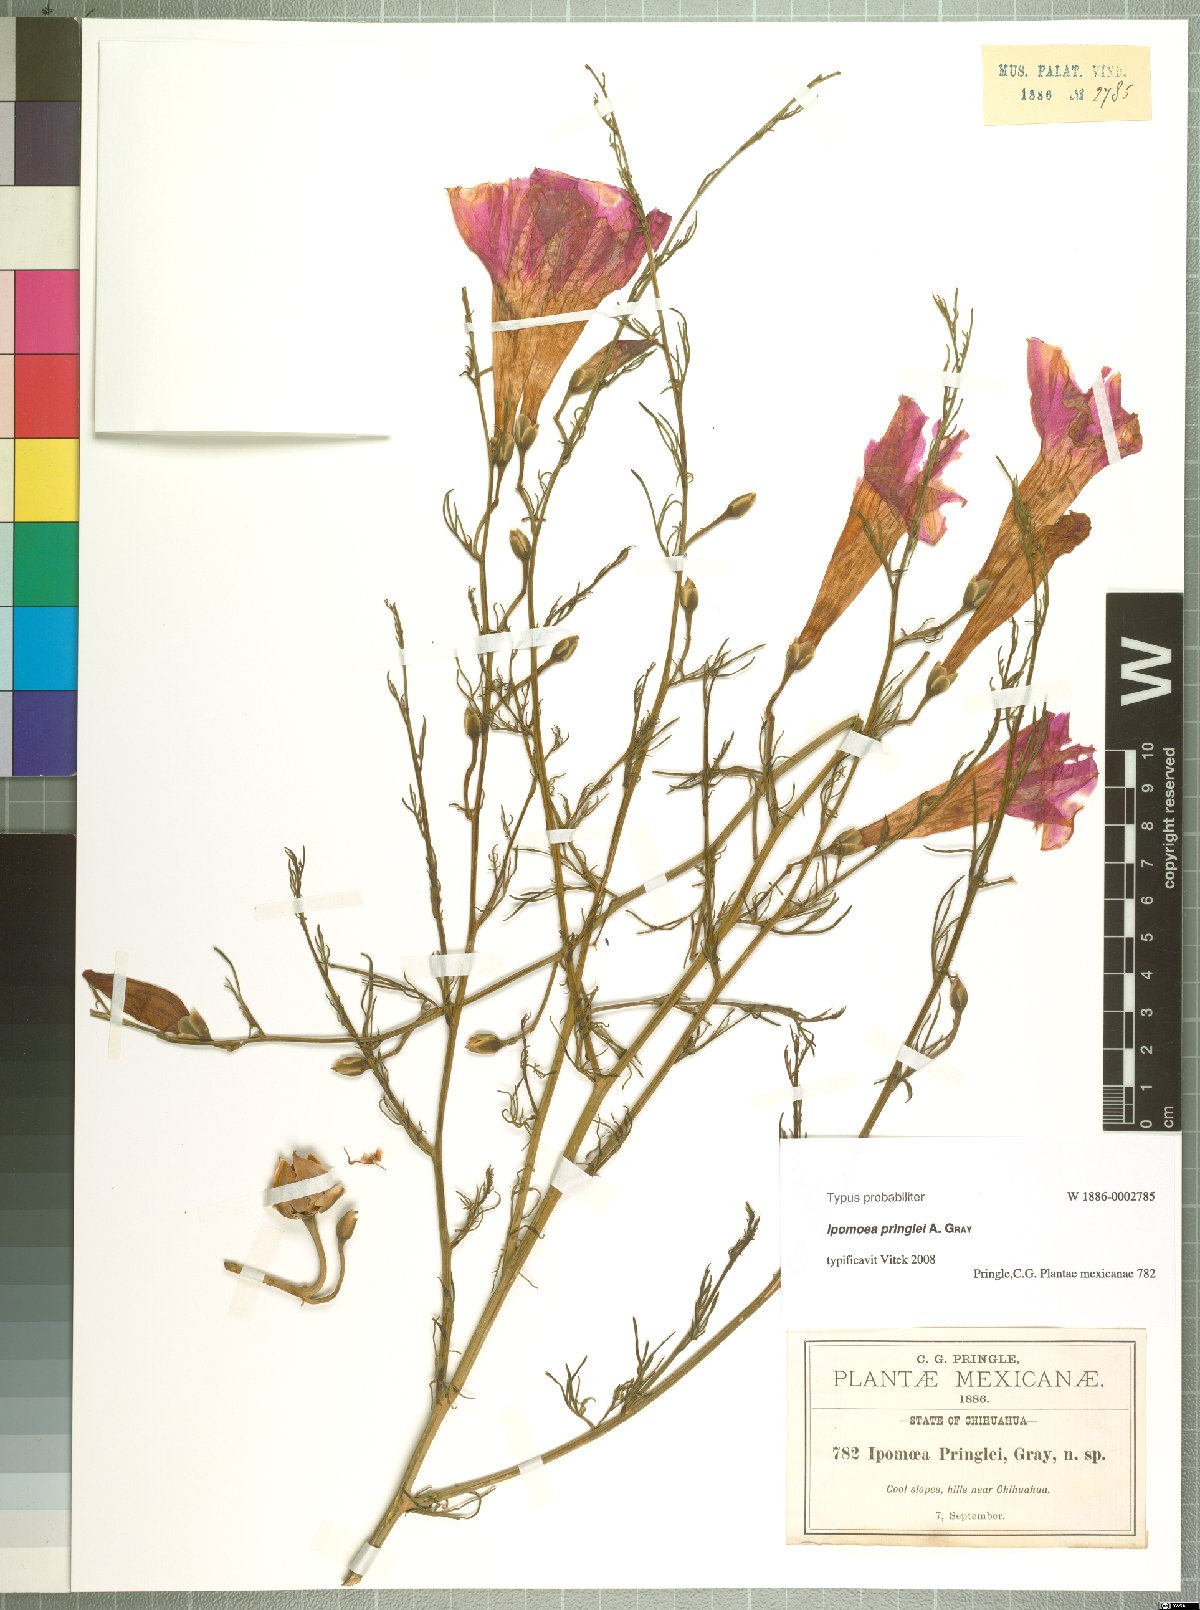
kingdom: Plantae
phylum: Tracheophyta
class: Magnoliopsida
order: Solanales
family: Convolvulaceae
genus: Ipomoea
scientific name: Ipomoea sescossiana
